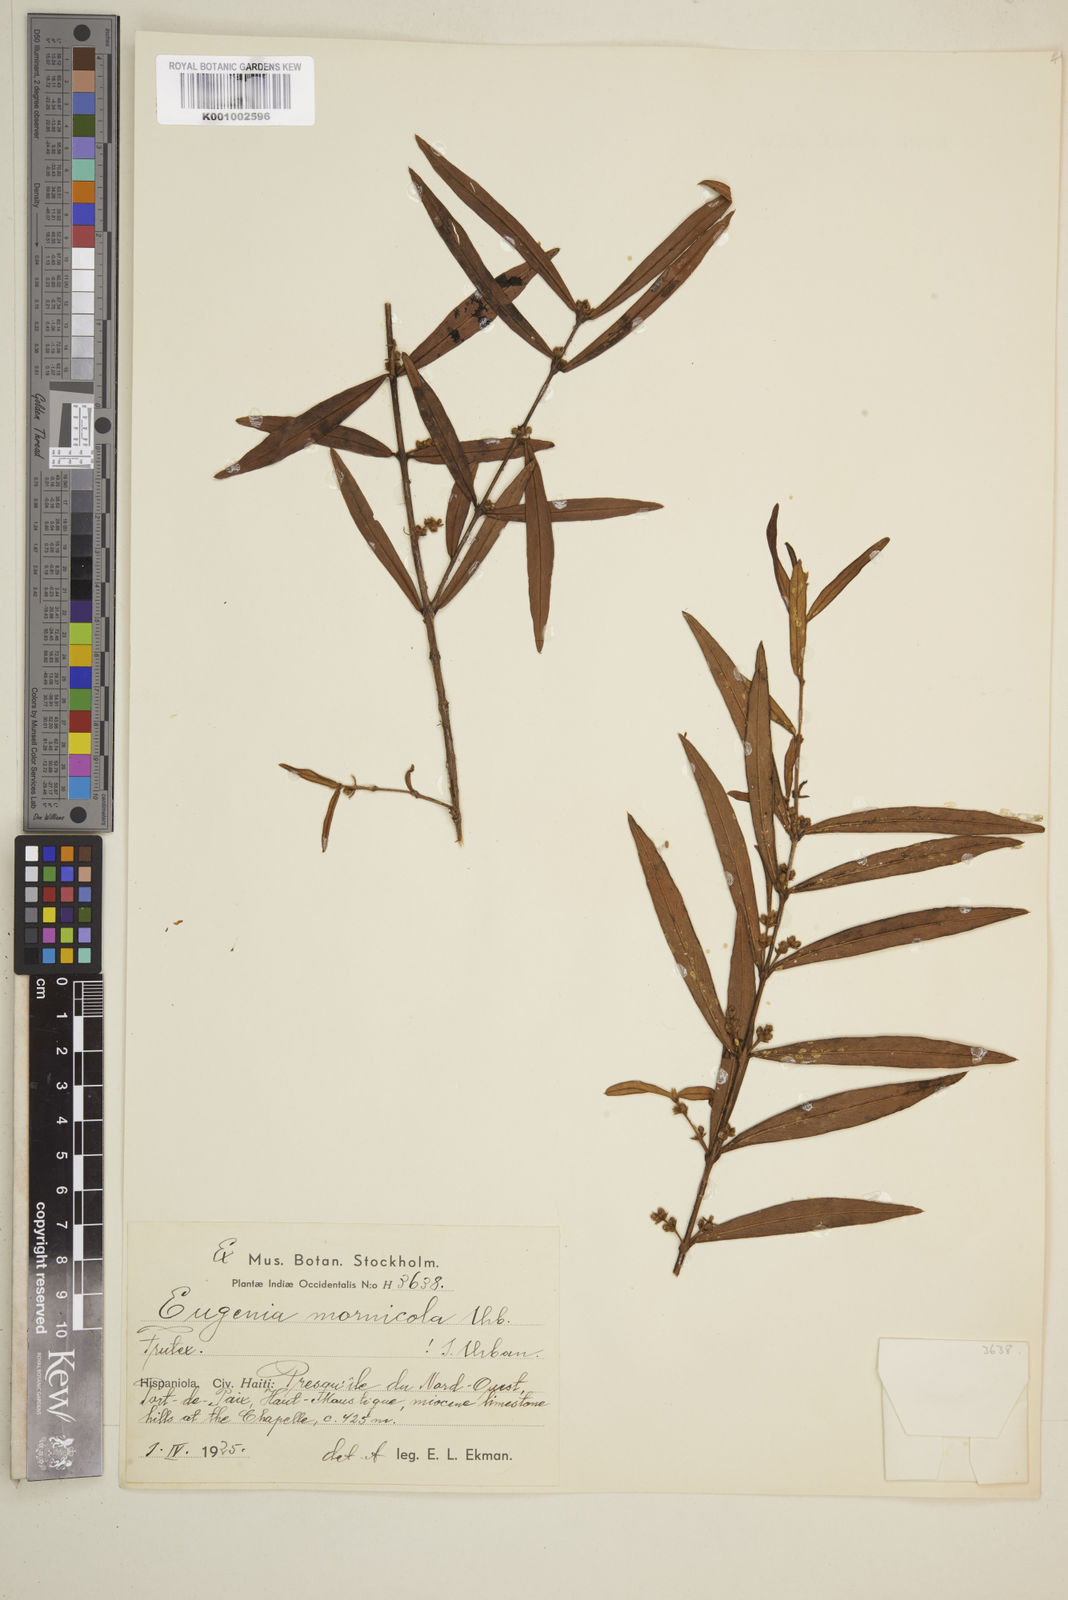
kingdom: Plantae
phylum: Tracheophyta
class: Magnoliopsida
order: Myrtales
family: Myrtaceae
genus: Eugenia
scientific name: Eugenia isabeliana
